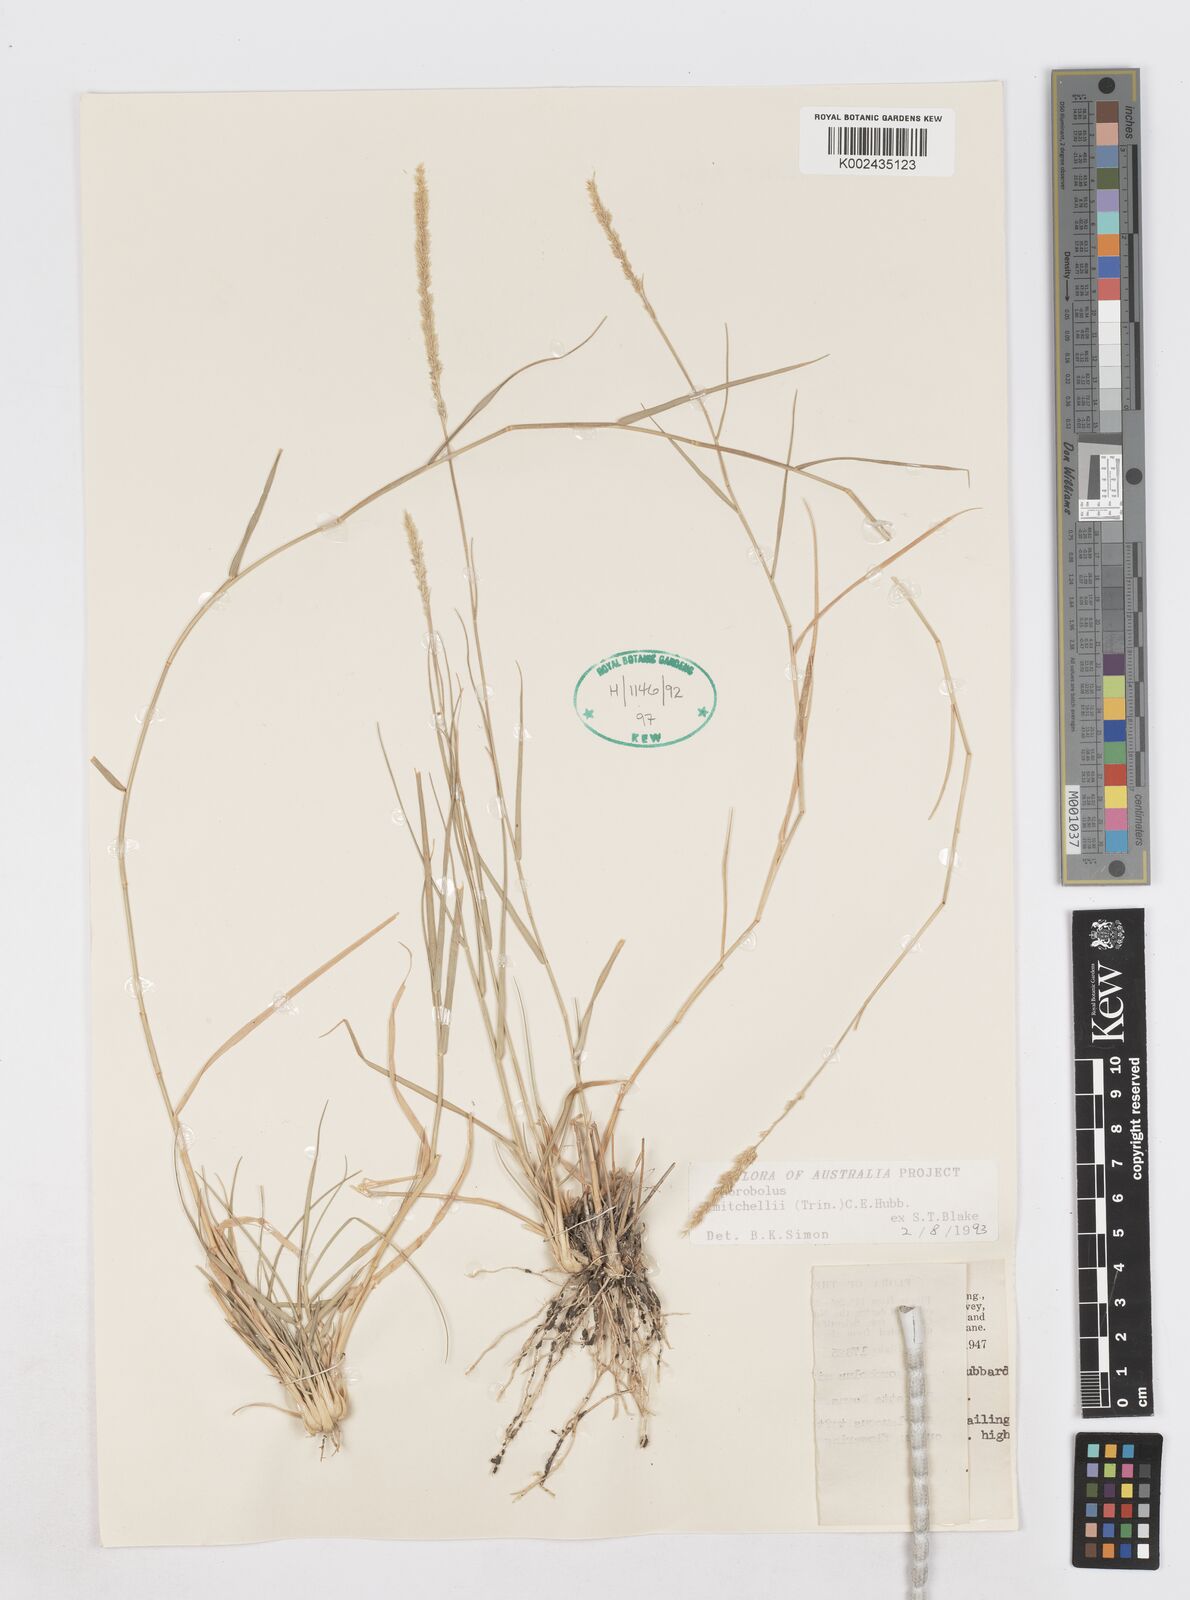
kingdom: Plantae
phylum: Tracheophyta
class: Liliopsida
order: Poales
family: Poaceae
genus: Sporobolus
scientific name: Sporobolus mitchellii
